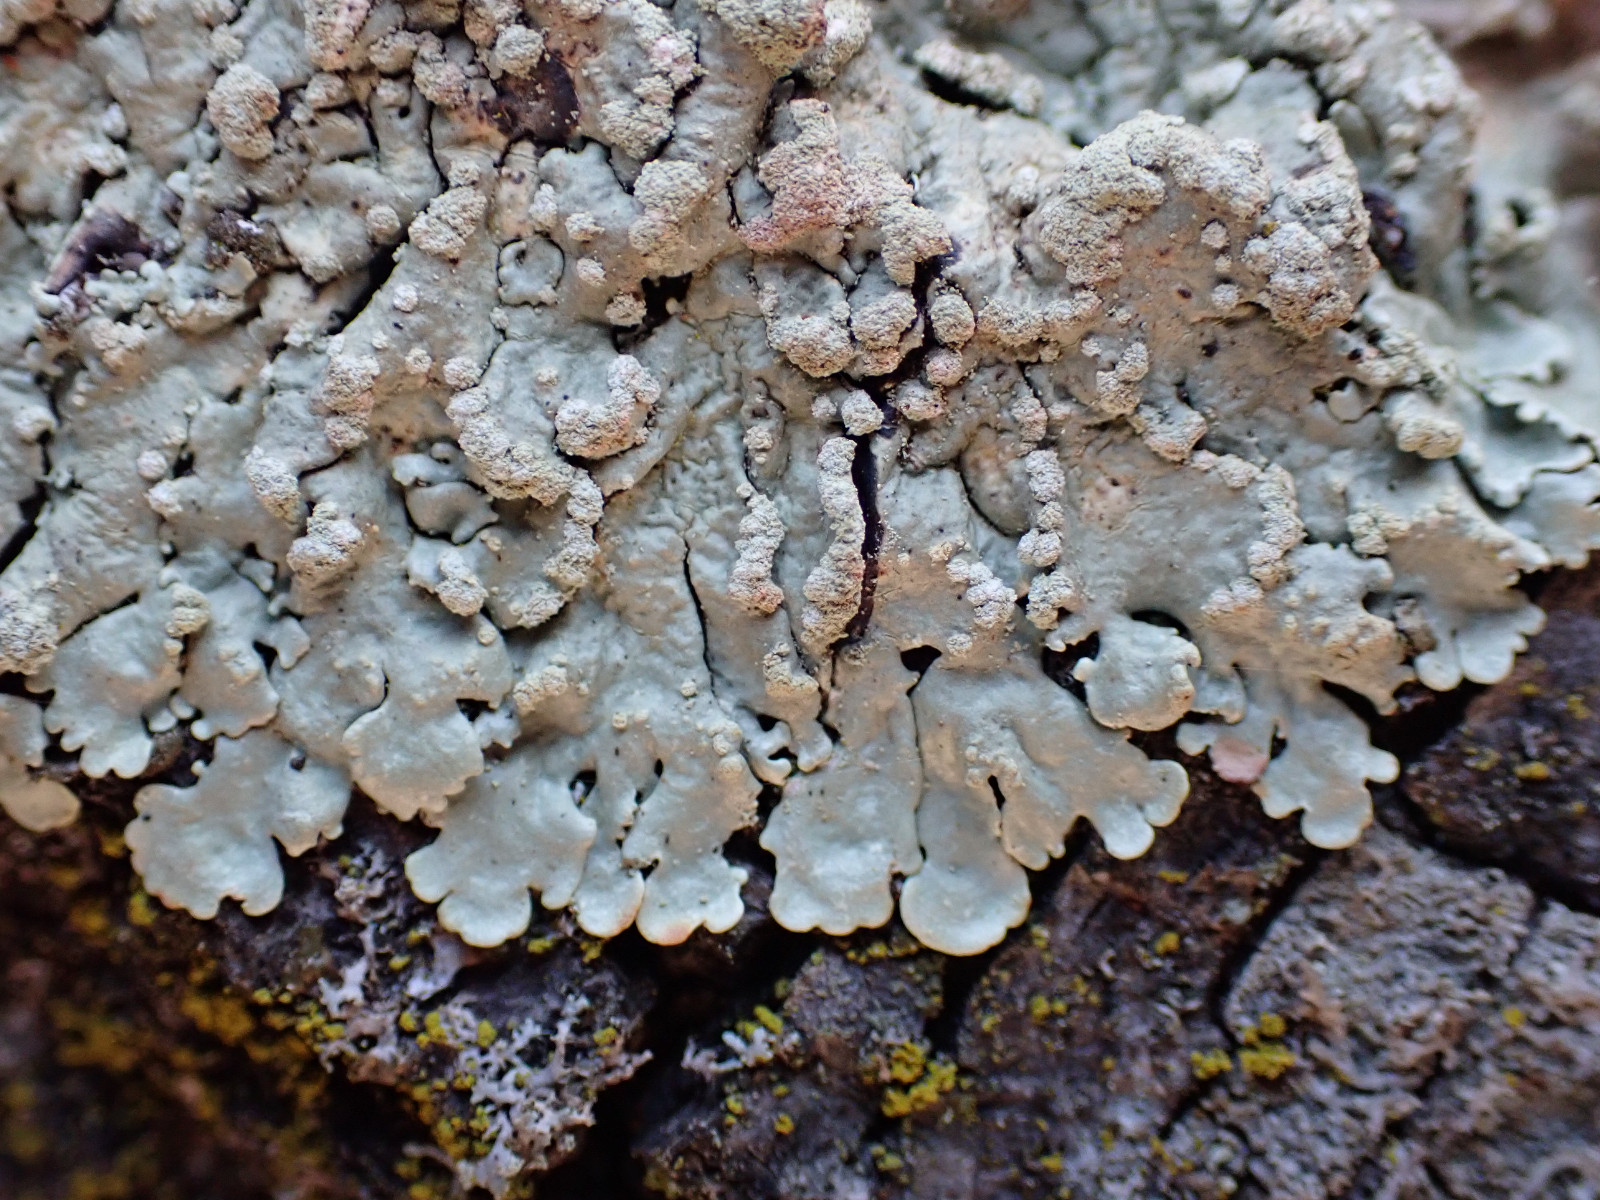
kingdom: Fungi
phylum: Ascomycota
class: Lecanoromycetes
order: Lecanorales
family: Parmeliaceae
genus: Flavoparmelia
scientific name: Flavoparmelia soredians
